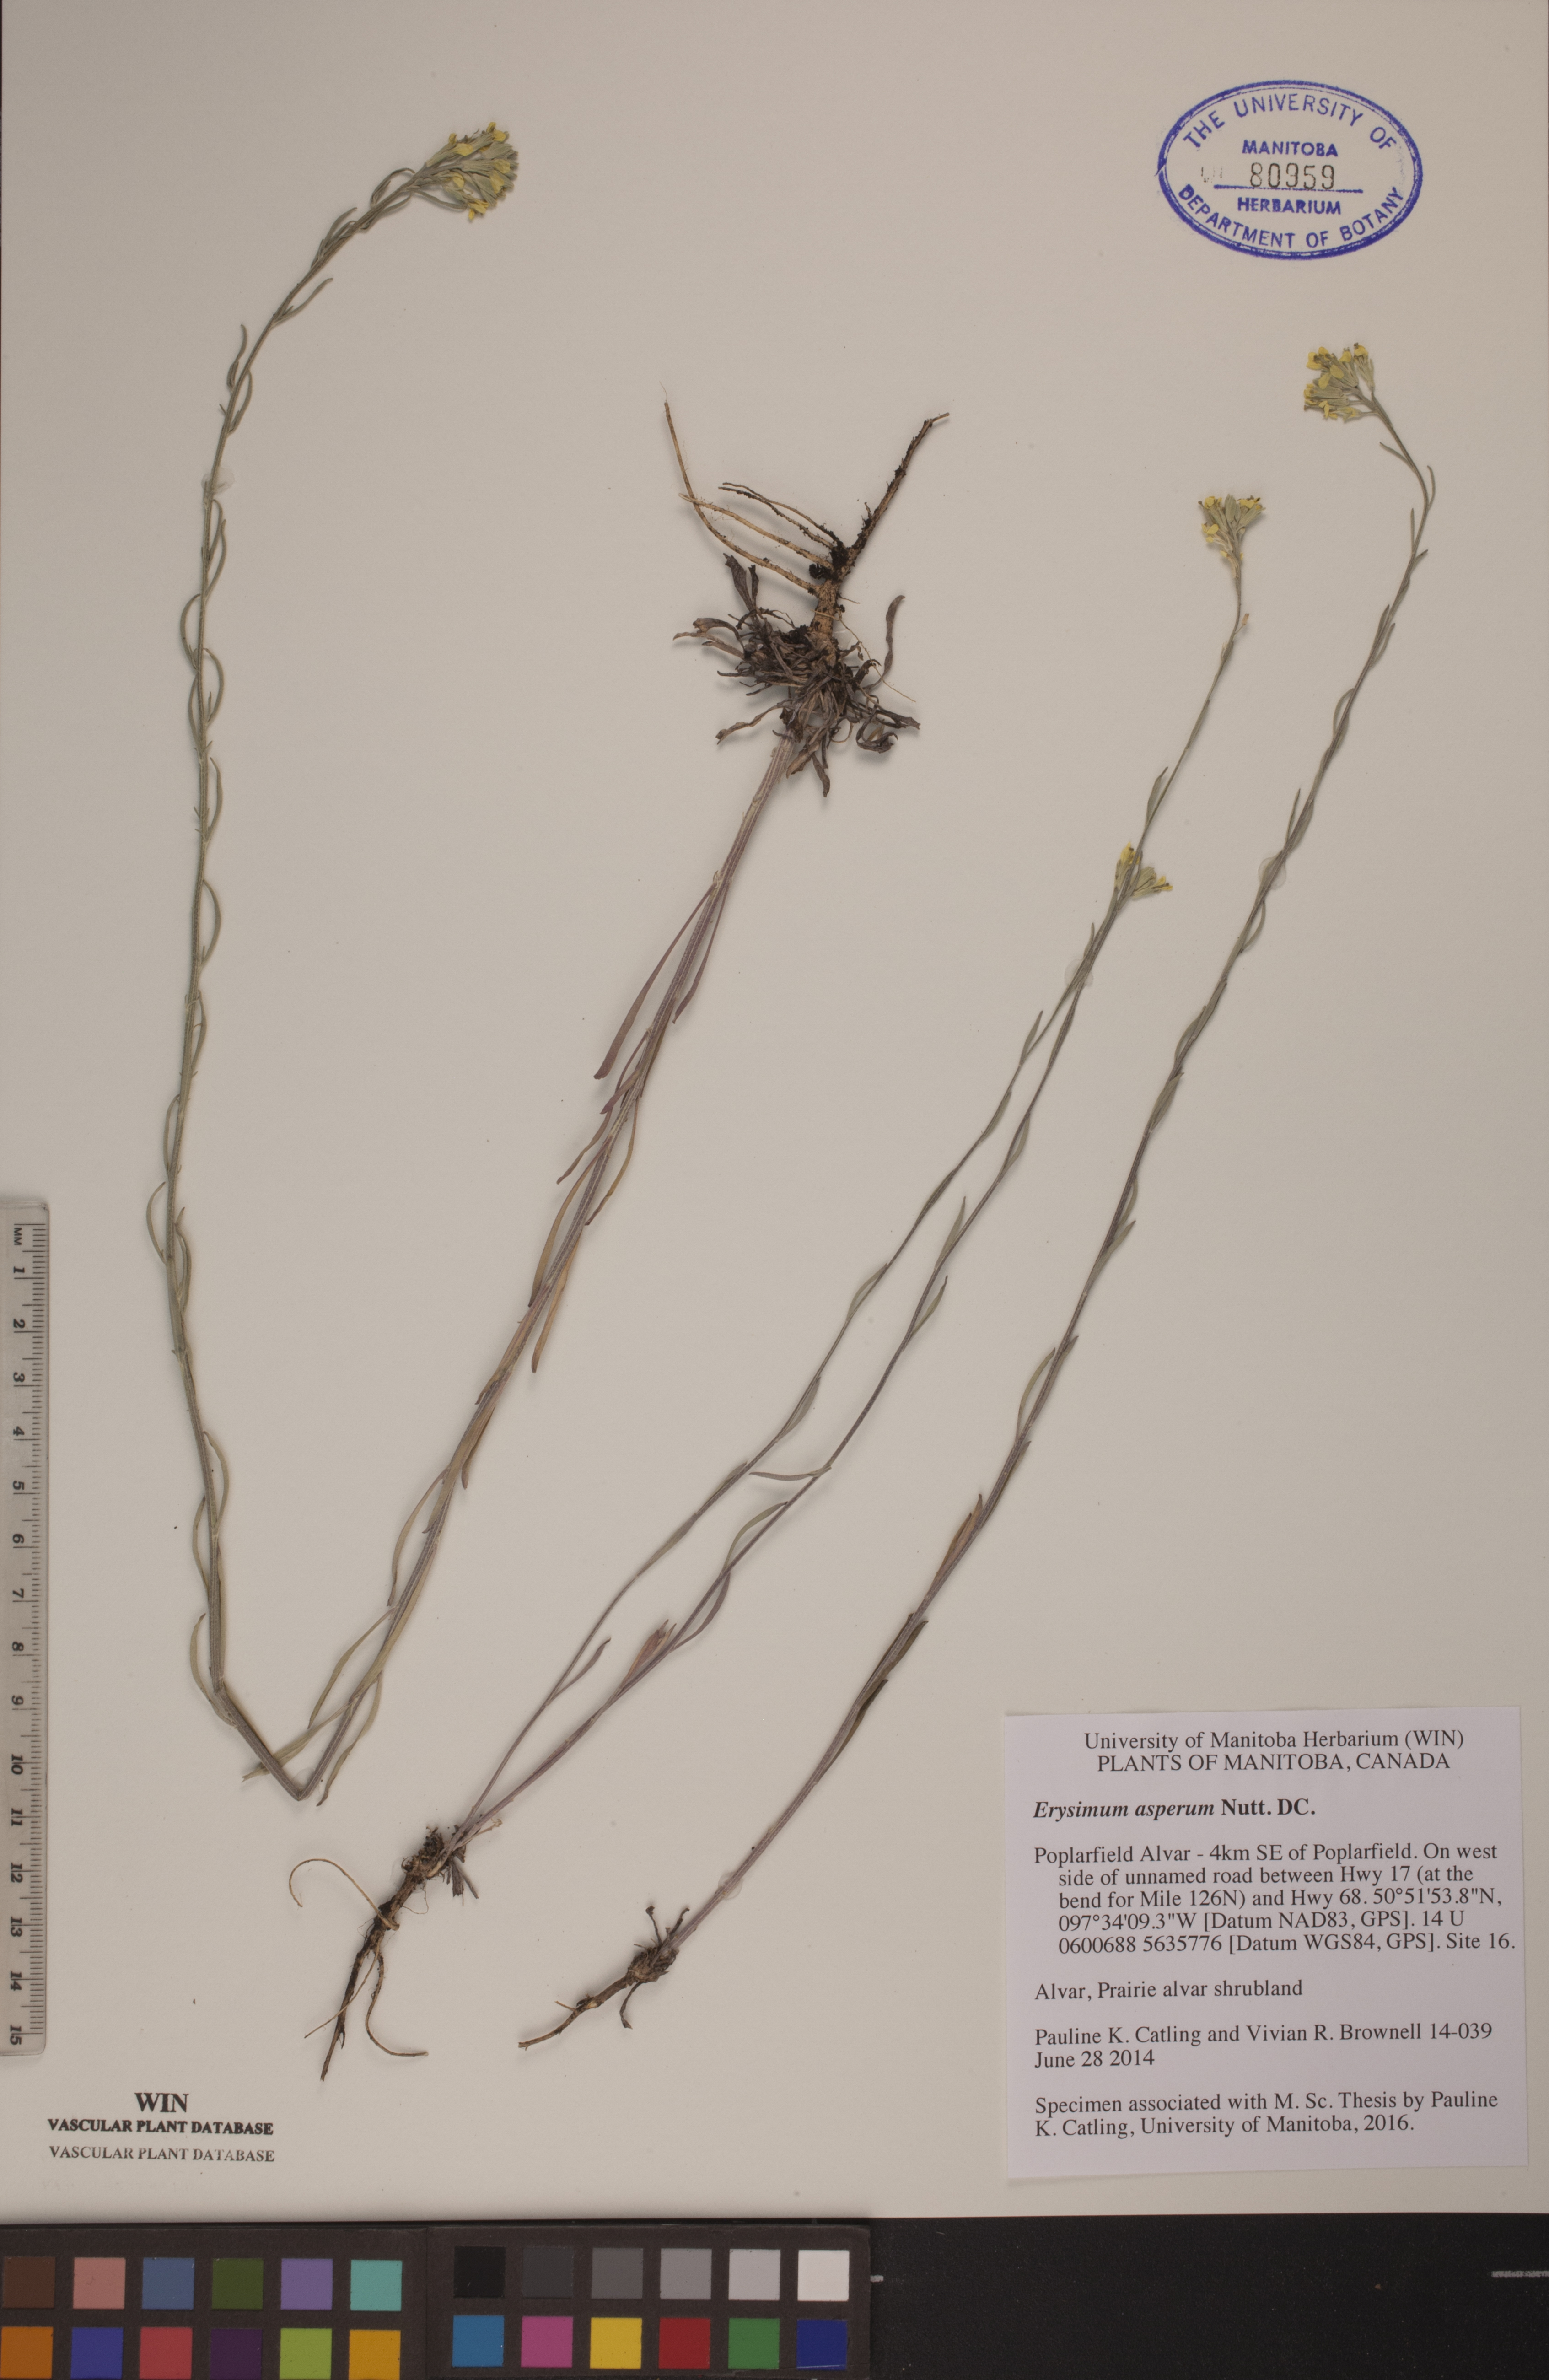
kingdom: Plantae
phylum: Tracheophyta
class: Magnoliopsida
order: Brassicales
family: Brassicaceae
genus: Erysimum
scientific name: Erysimum asperum
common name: Western wallflower
